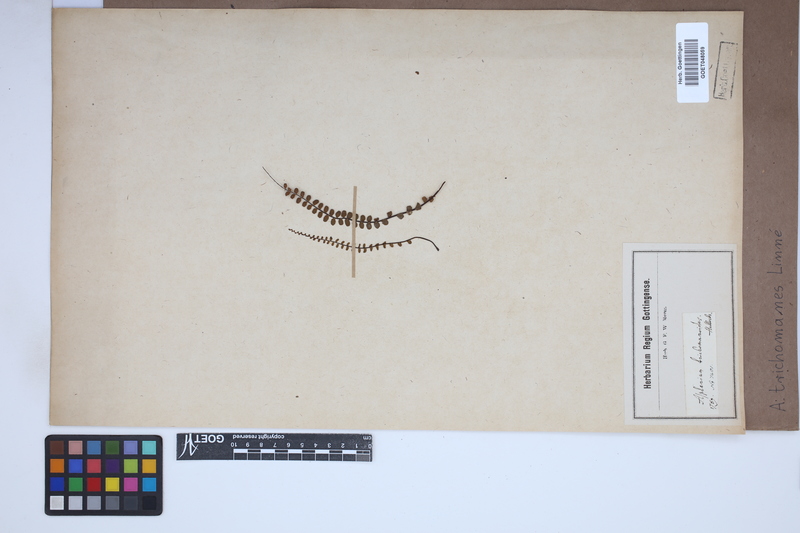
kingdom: Plantae
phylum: Tracheophyta
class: Polypodiopsida
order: Polypodiales
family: Aspleniaceae
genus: Asplenium
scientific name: Asplenium trichomanes
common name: Maidenhair spleenwort
